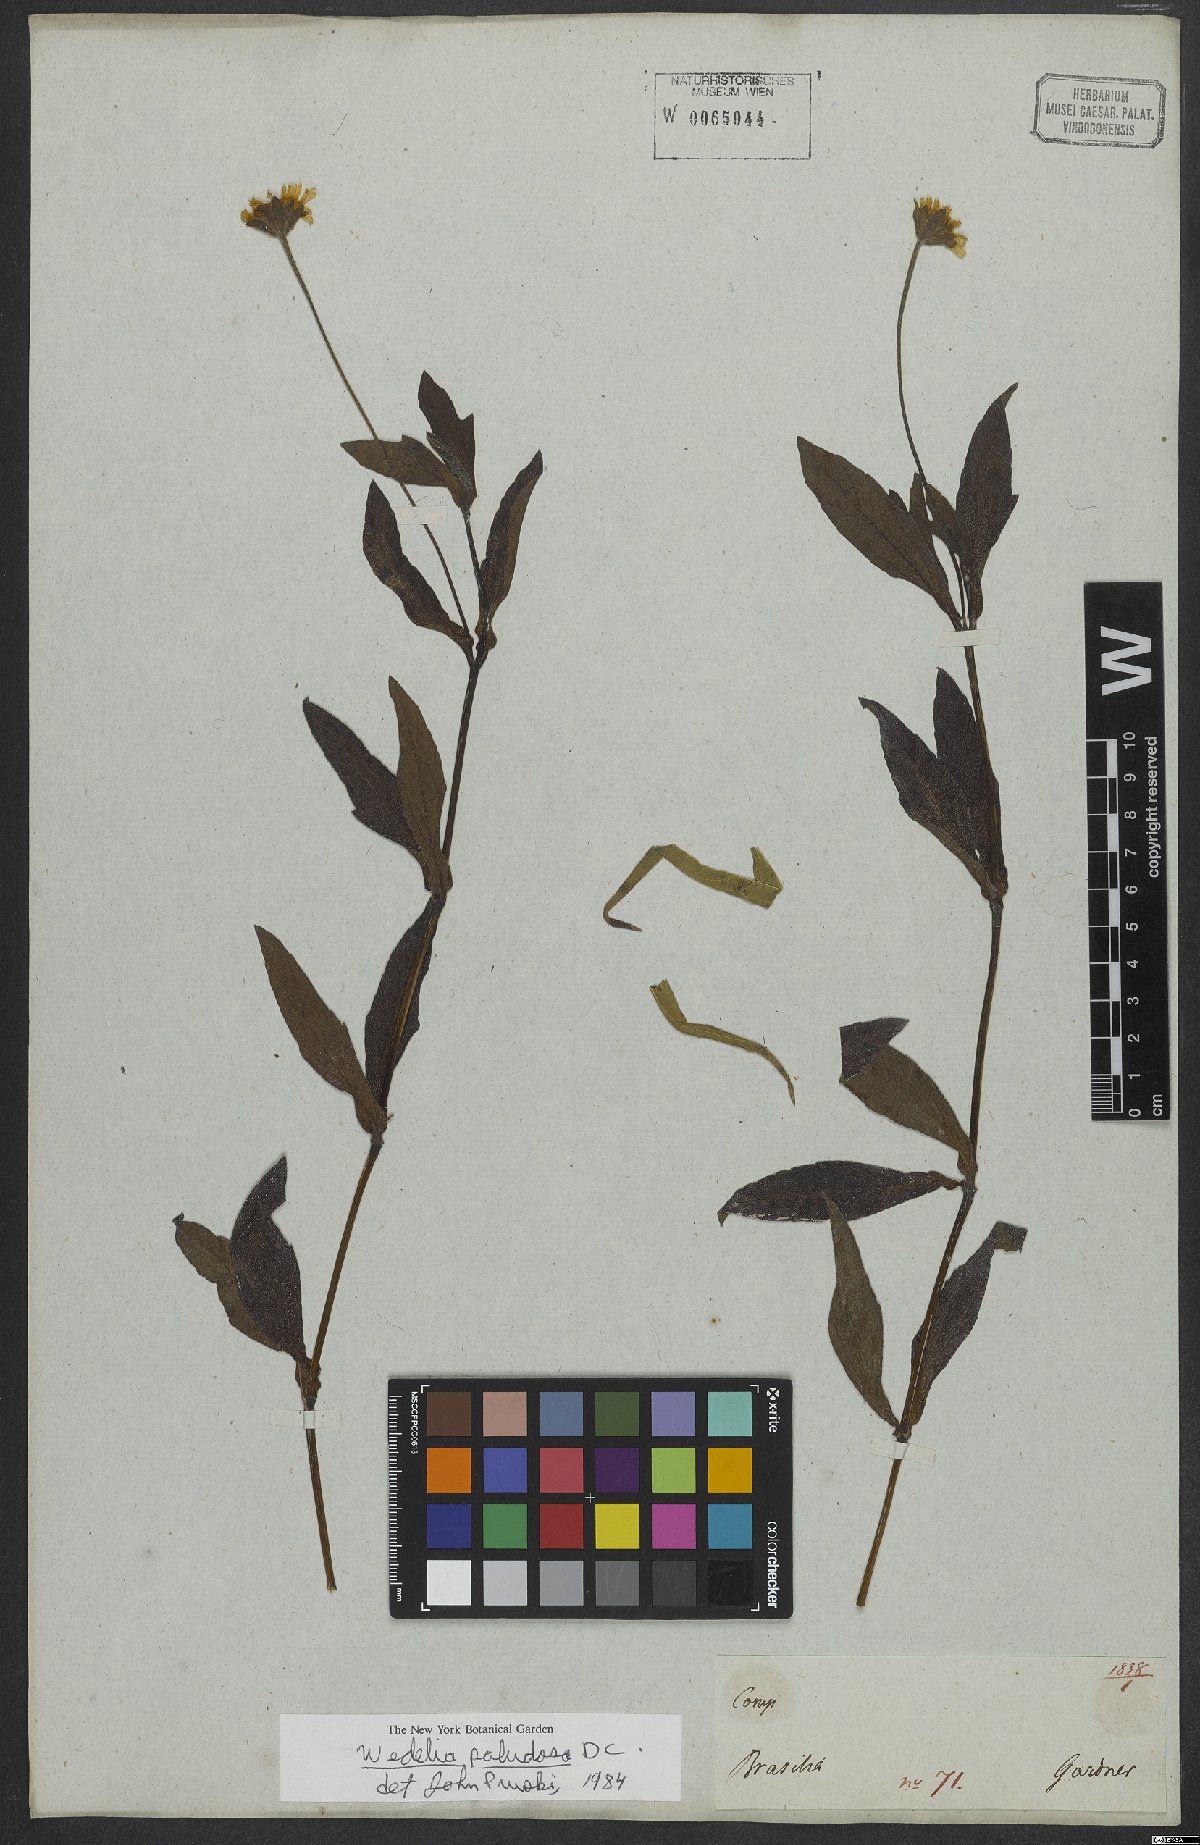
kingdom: Plantae
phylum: Tracheophyta
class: Magnoliopsida
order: Asterales
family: Asteraceae
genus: Sphagneticola
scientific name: Sphagneticola trilobata
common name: Bay biscayne creeping-oxeye
